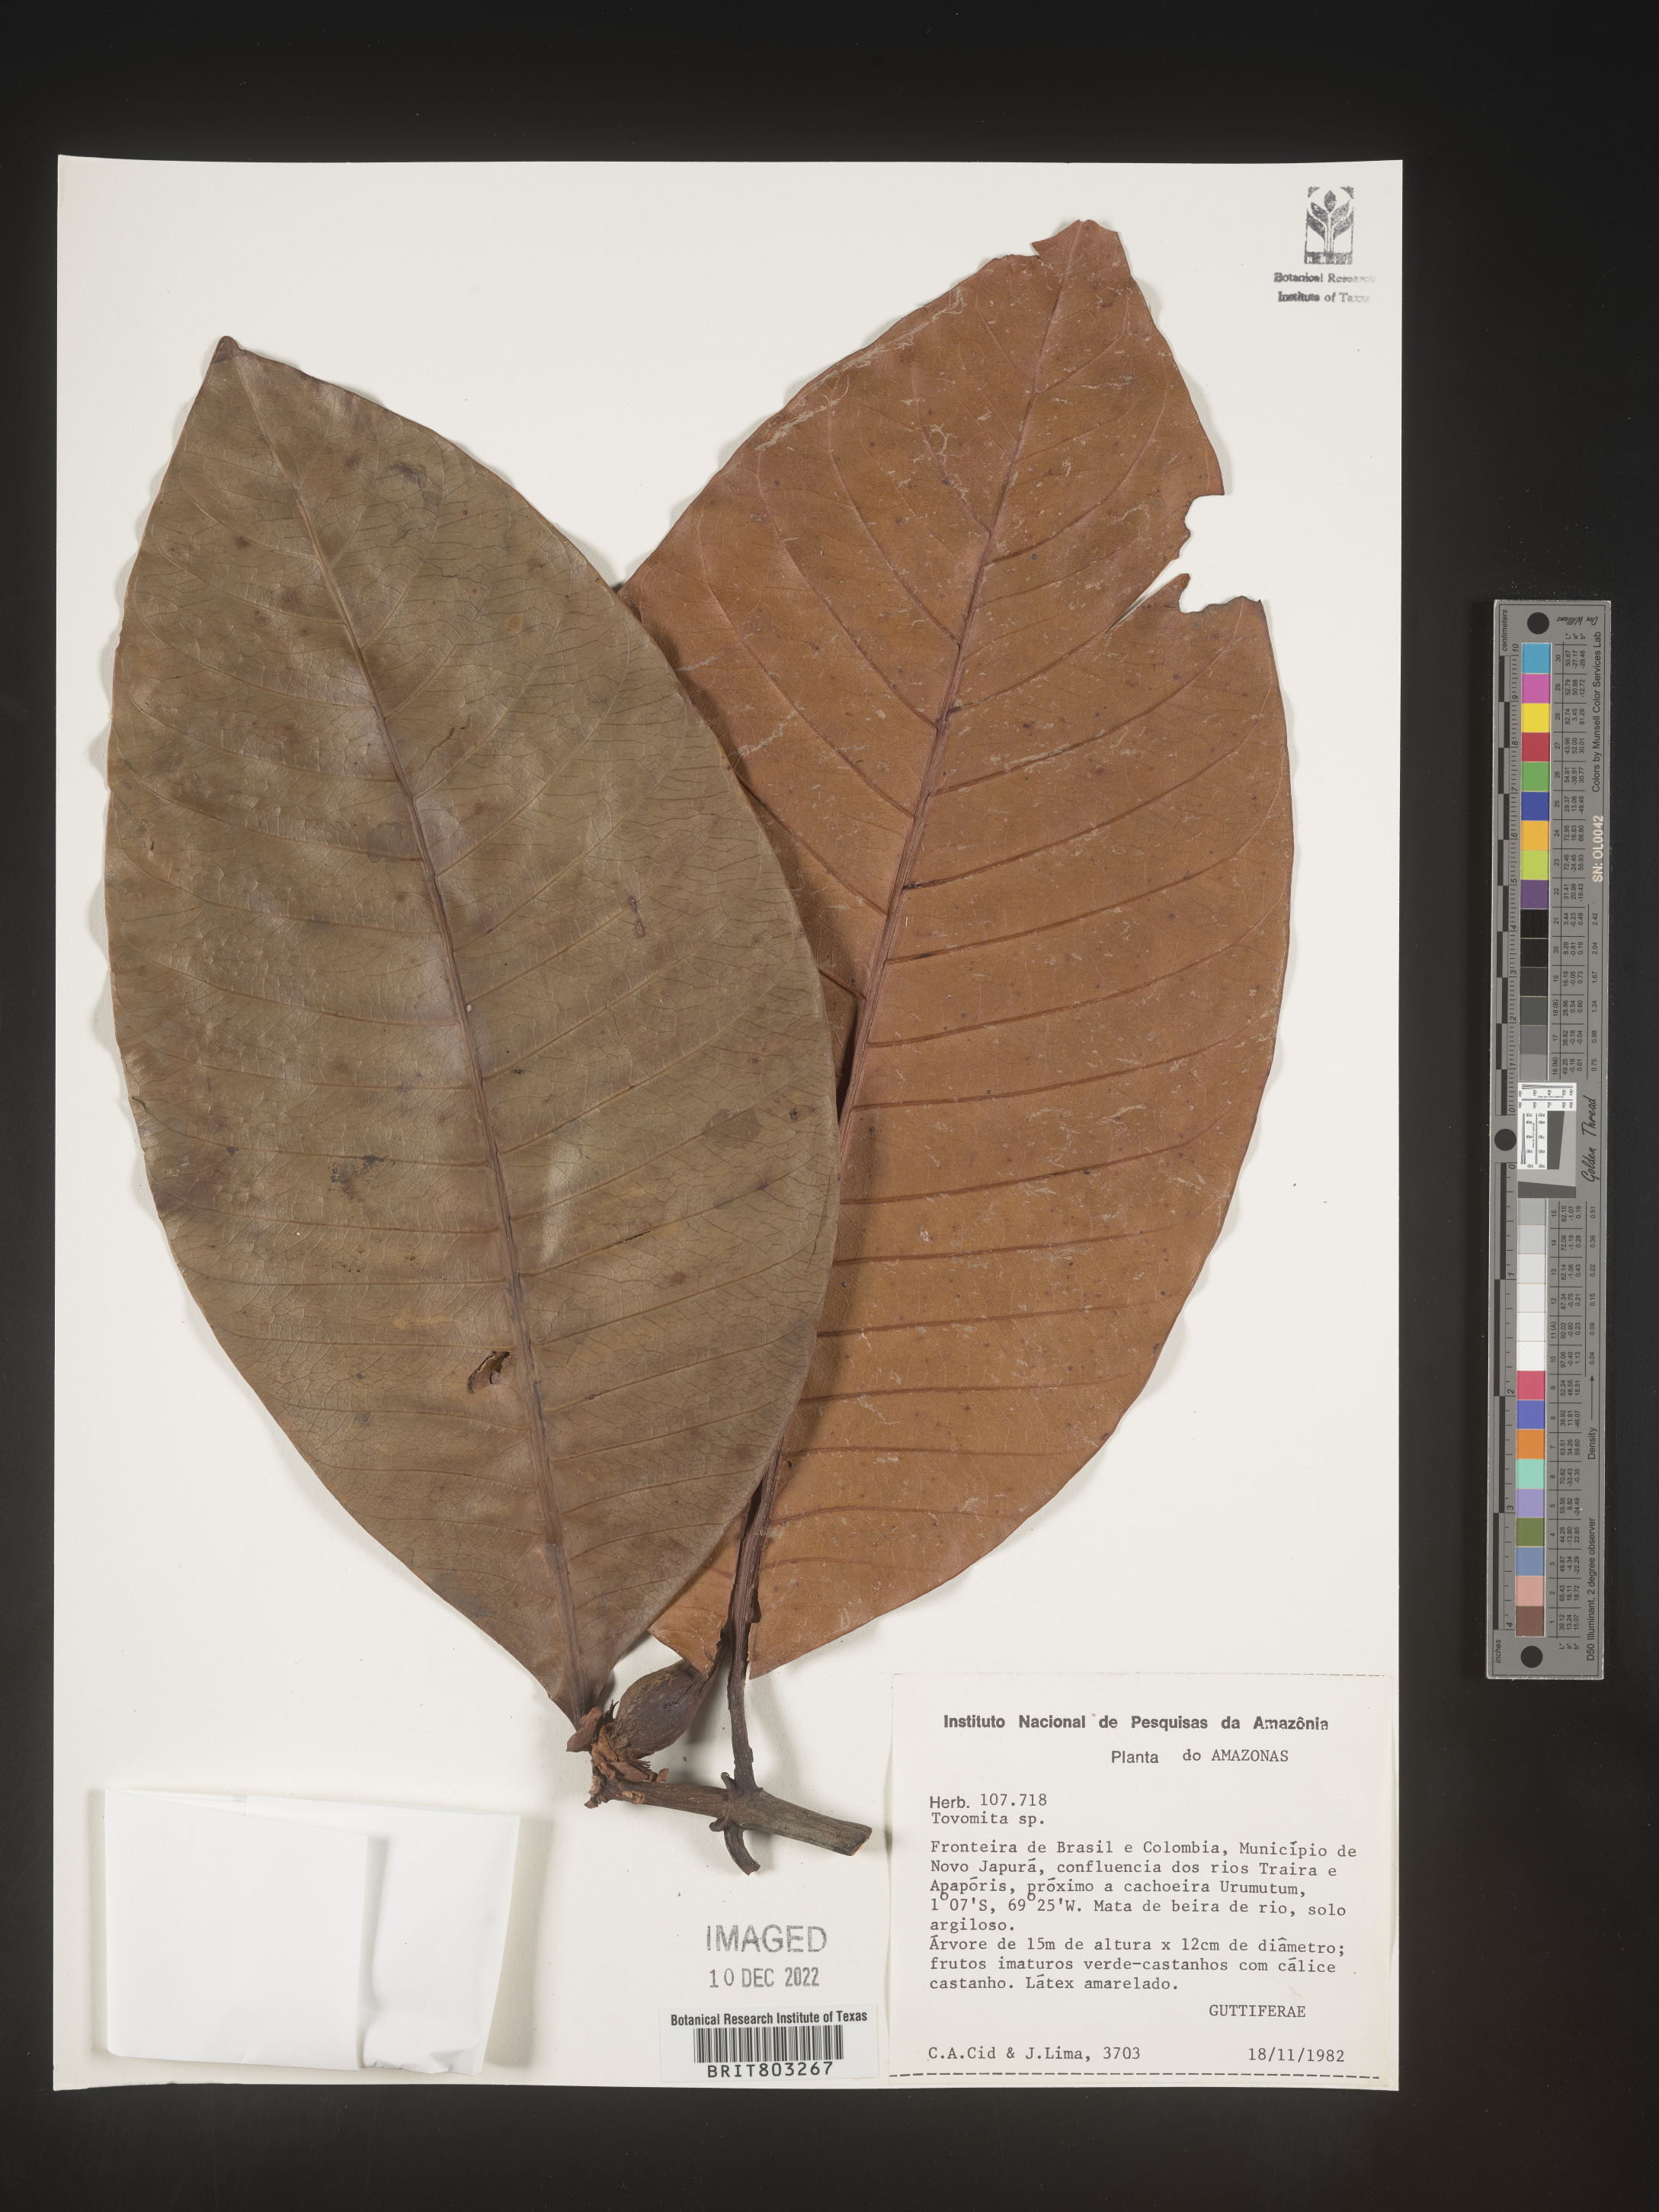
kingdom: Plantae
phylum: Tracheophyta
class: Magnoliopsida
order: Malpighiales
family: Clusiaceae
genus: Tovomita
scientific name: Tovomita
